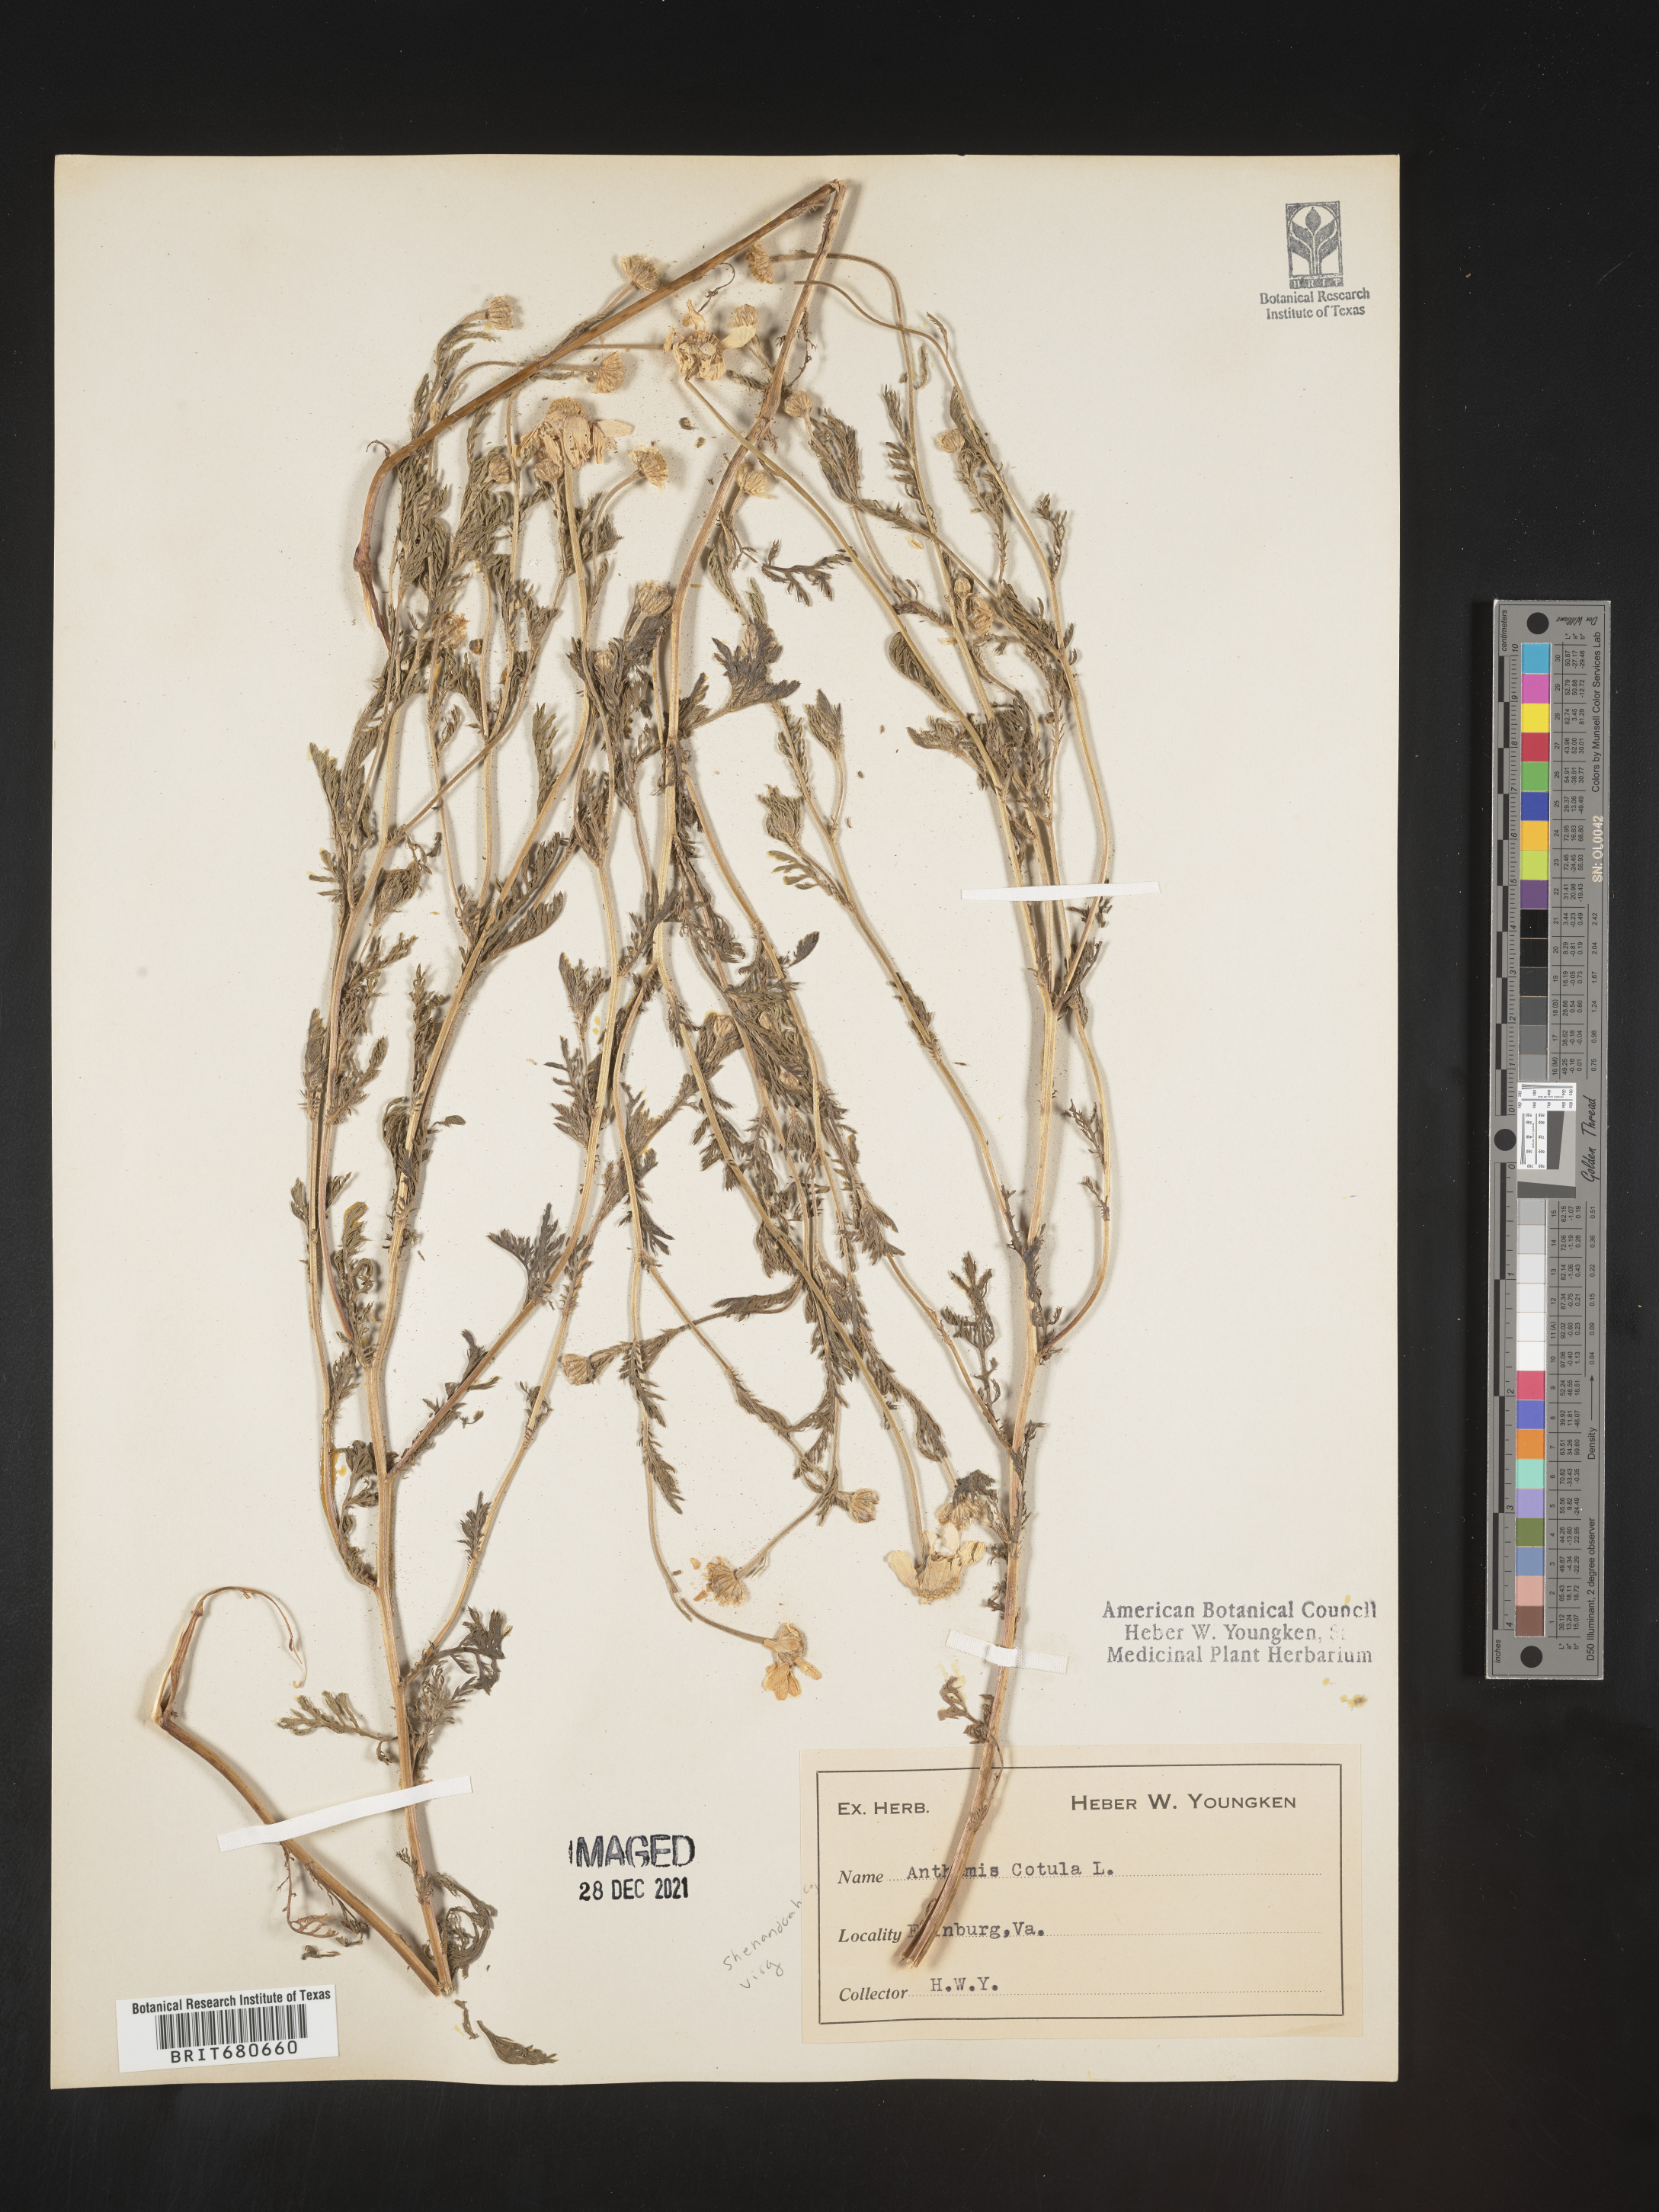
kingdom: Plantae
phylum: Tracheophyta
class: Magnoliopsida
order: Asterales
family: Asteraceae
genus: Anthemis
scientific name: Anthemis cotula
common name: Stinking chamomile
